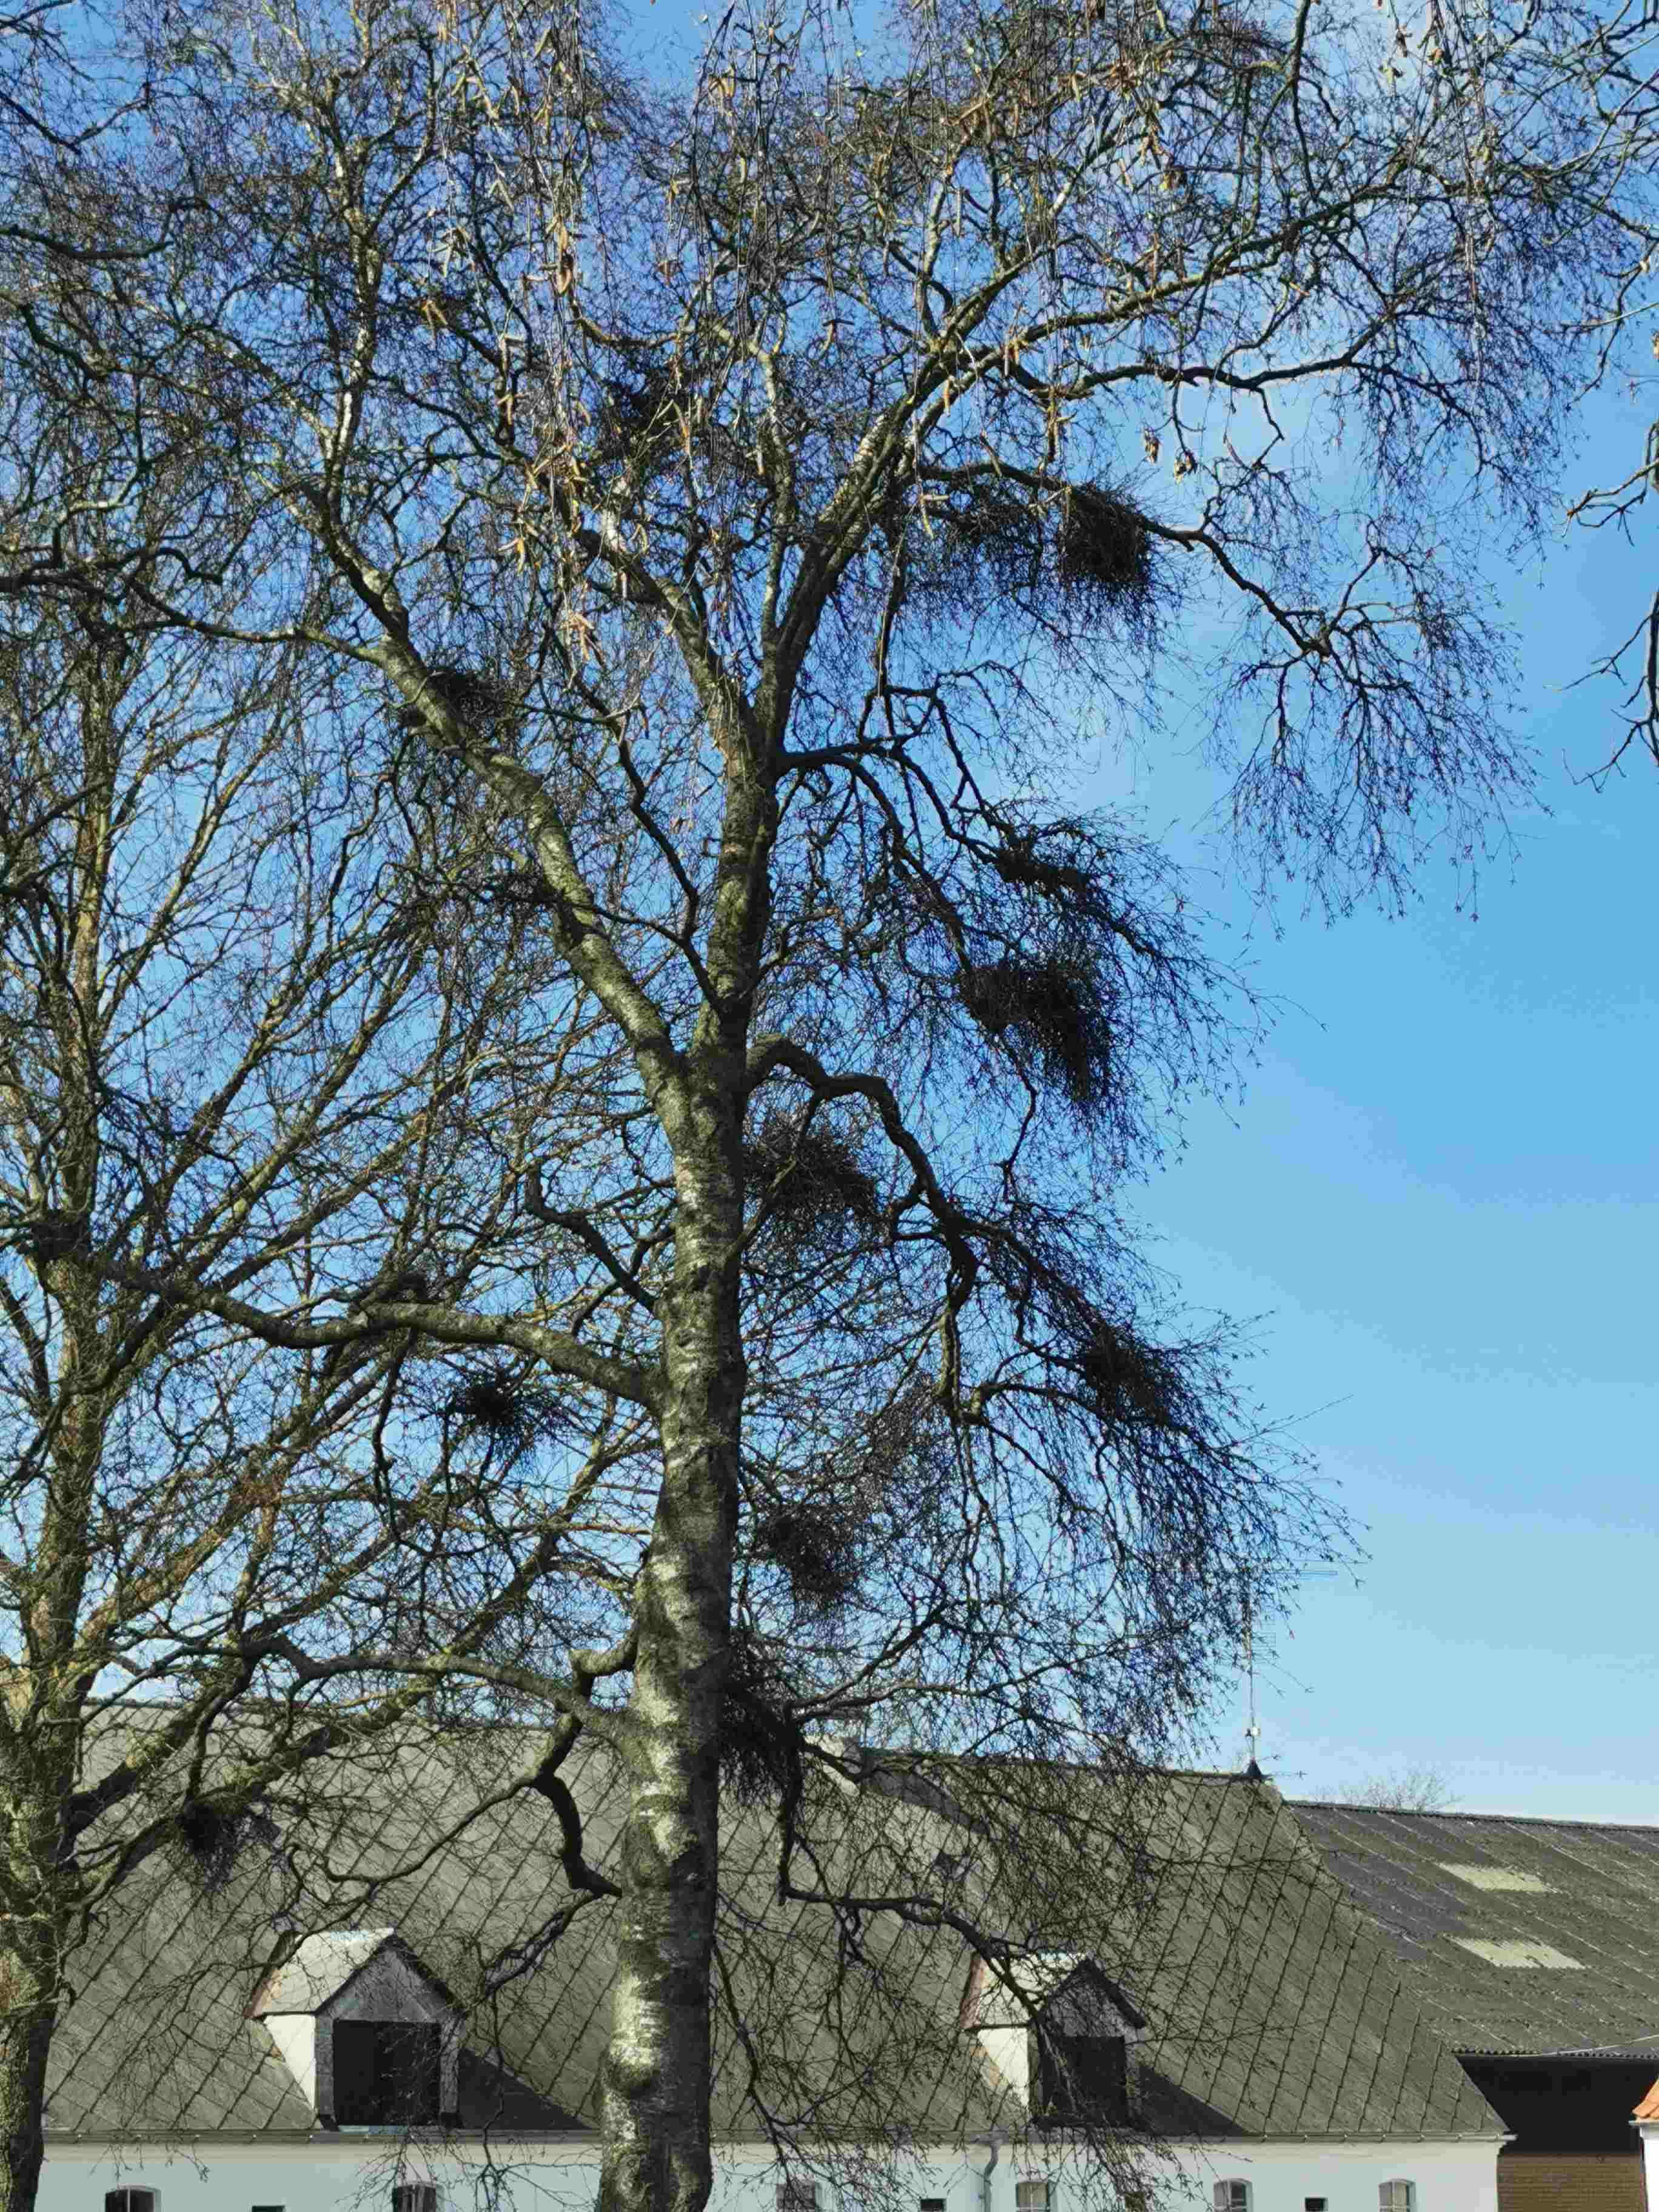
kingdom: Fungi
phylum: Ascomycota
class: Taphrinomycetes
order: Taphrinales
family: Taphrinaceae
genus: Taphrina
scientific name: Taphrina betulina
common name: hekse-sækdug
